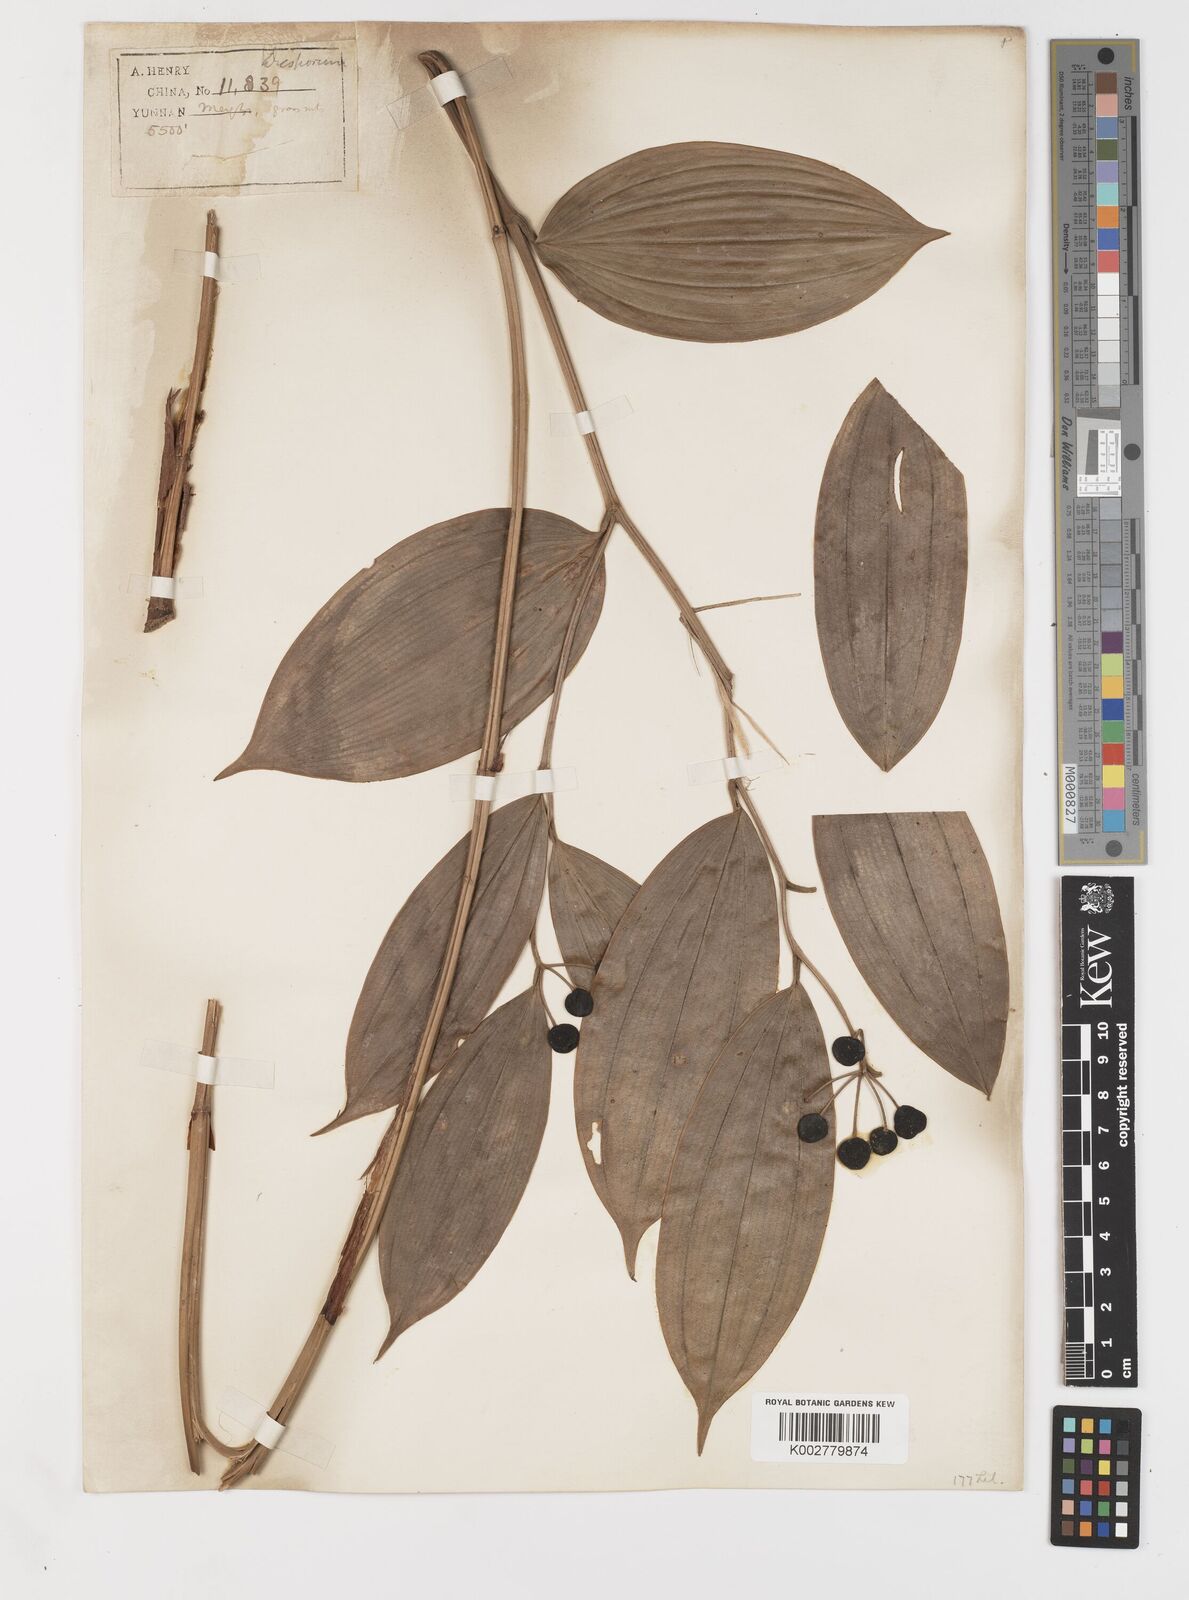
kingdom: Plantae
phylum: Tracheophyta
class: Liliopsida
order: Liliales
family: Colchicaceae
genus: Disporum
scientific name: Disporum
